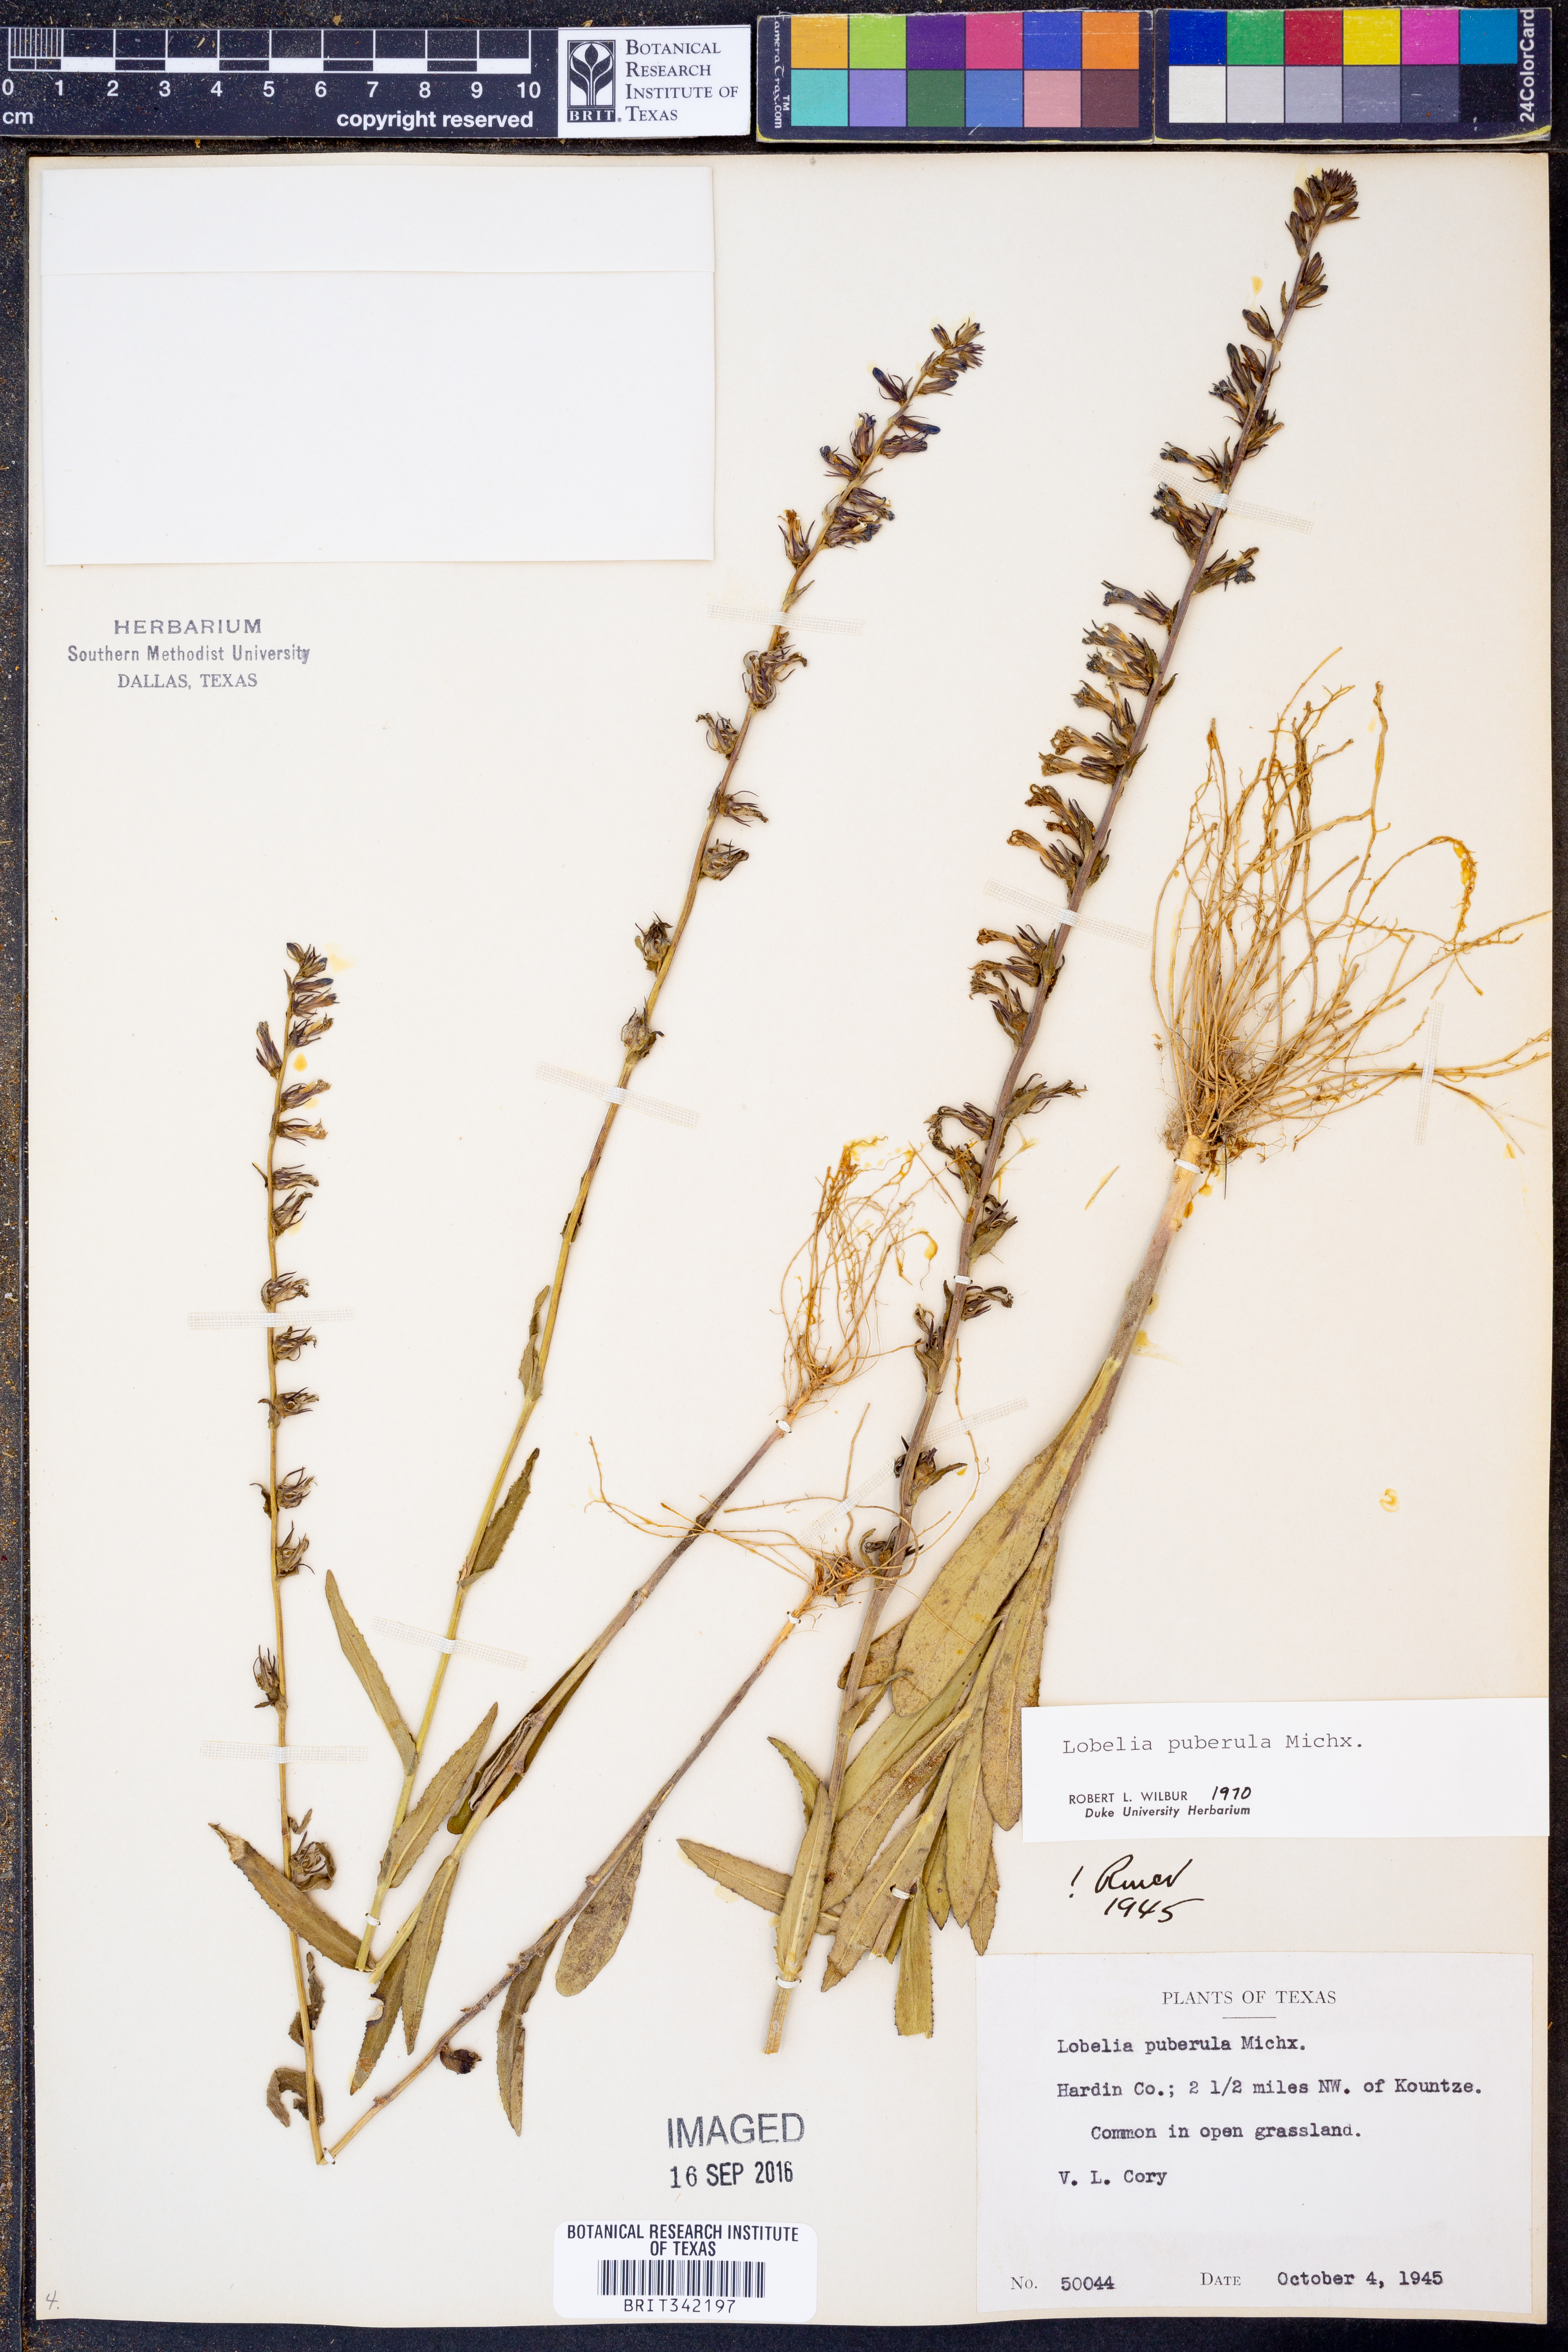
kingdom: Plantae
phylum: Tracheophyta
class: Magnoliopsida
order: Asterales
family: Campanulaceae
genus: Lobelia
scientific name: Lobelia puberula
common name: Purple dewdrop
